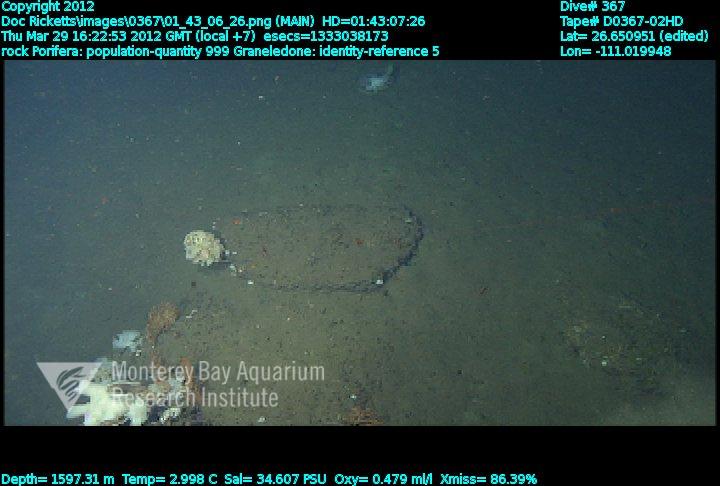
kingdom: Animalia
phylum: Porifera
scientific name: Porifera
